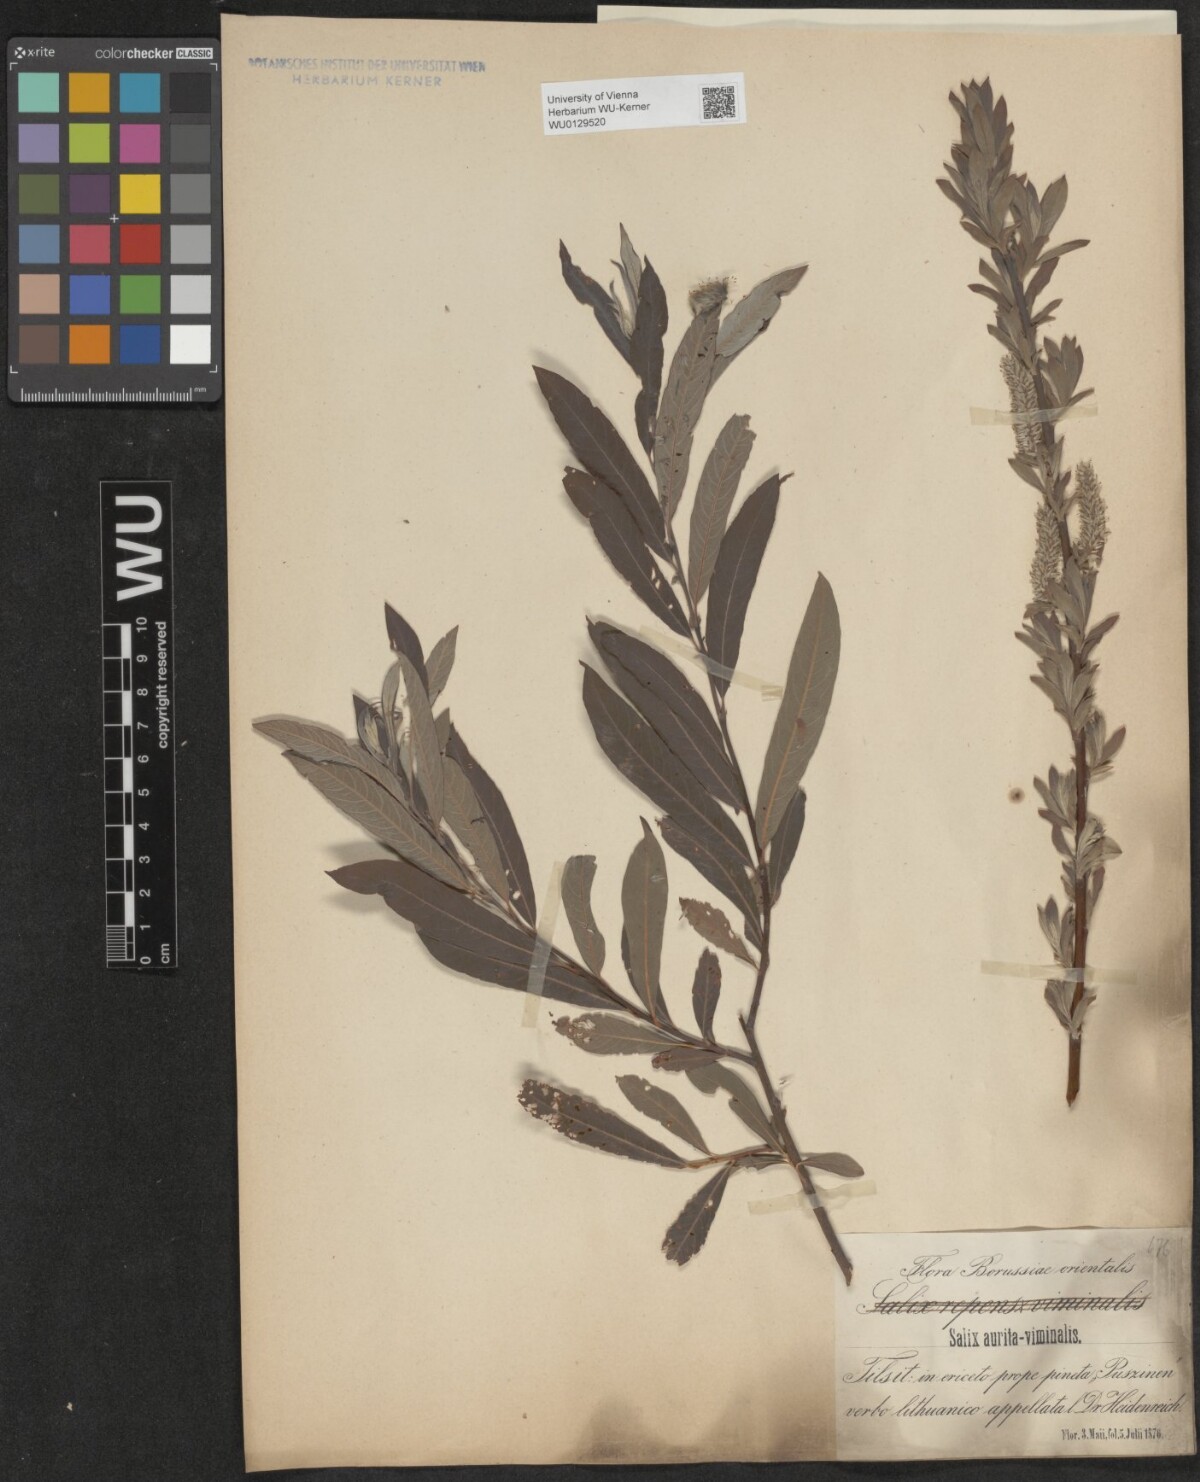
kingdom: Plantae
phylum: Tracheophyta
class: Magnoliopsida
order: Malpighiales
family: Salicaceae
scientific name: Salicaceae
